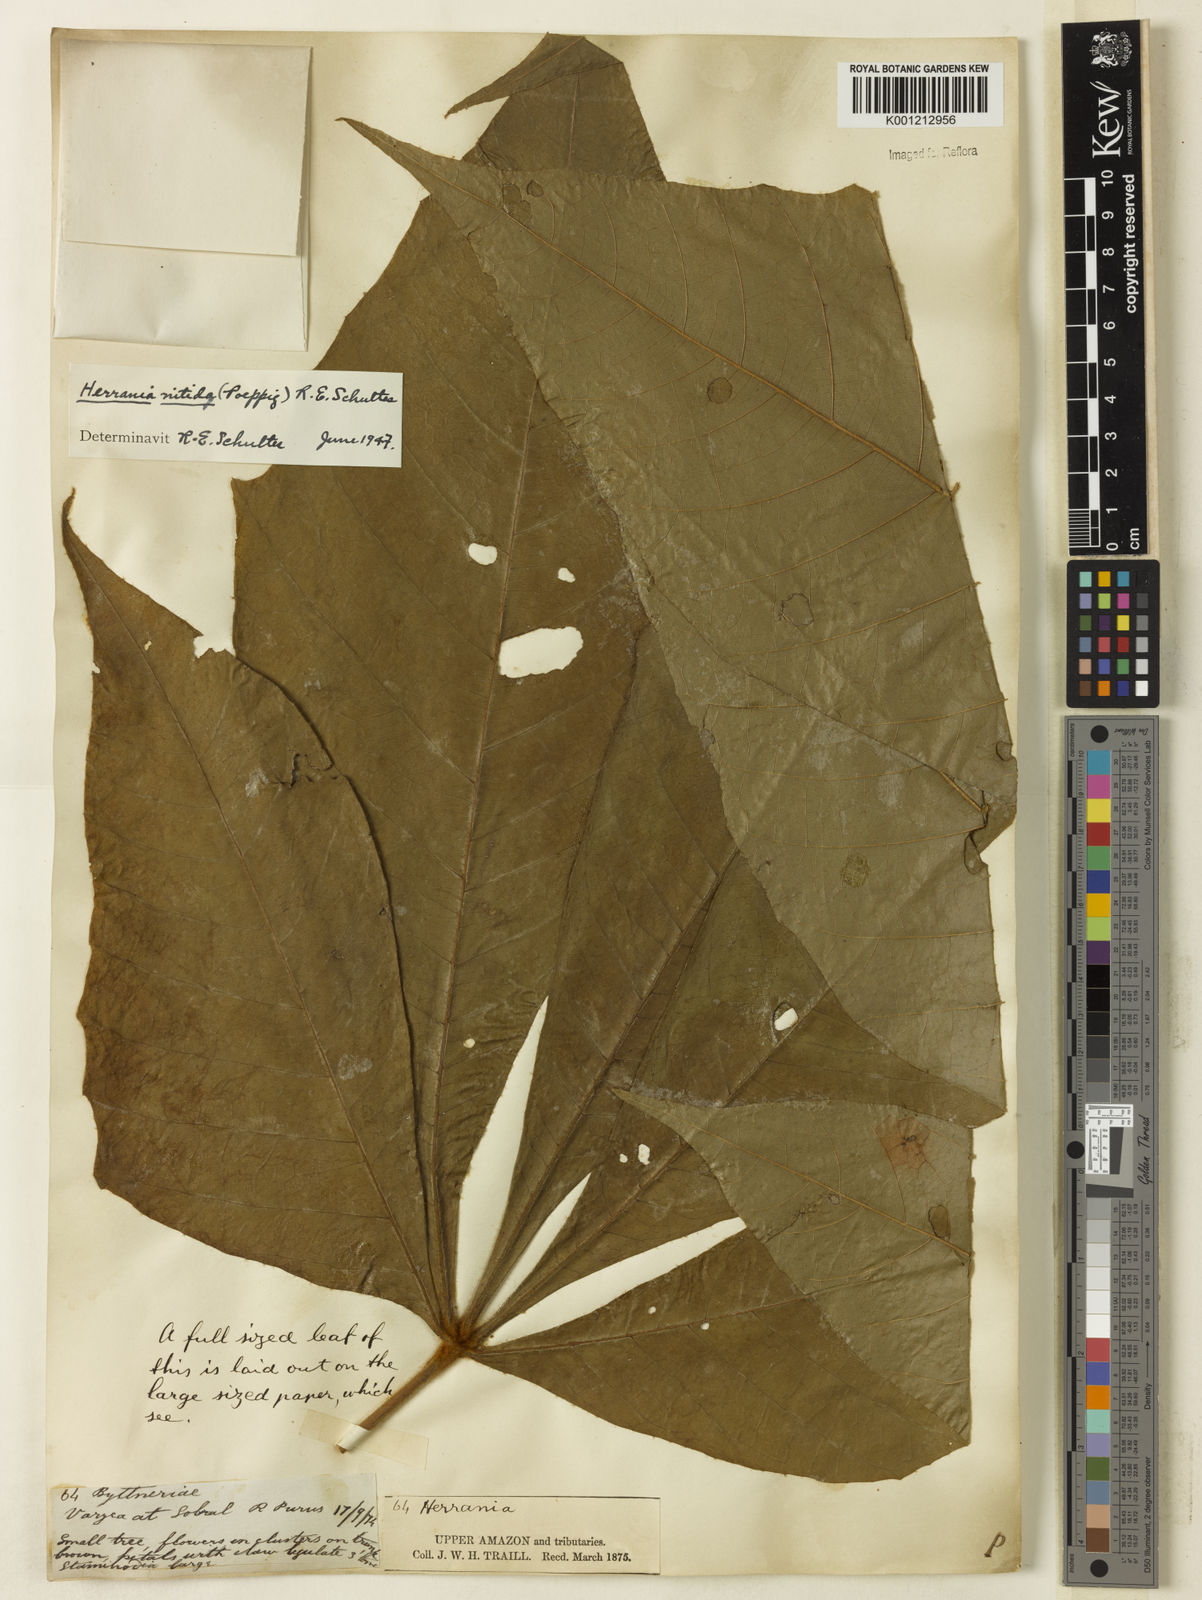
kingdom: Plantae
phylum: Tracheophyta
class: Magnoliopsida
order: Malvales
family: Malvaceae
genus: Herrania
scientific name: Herrania nitida
